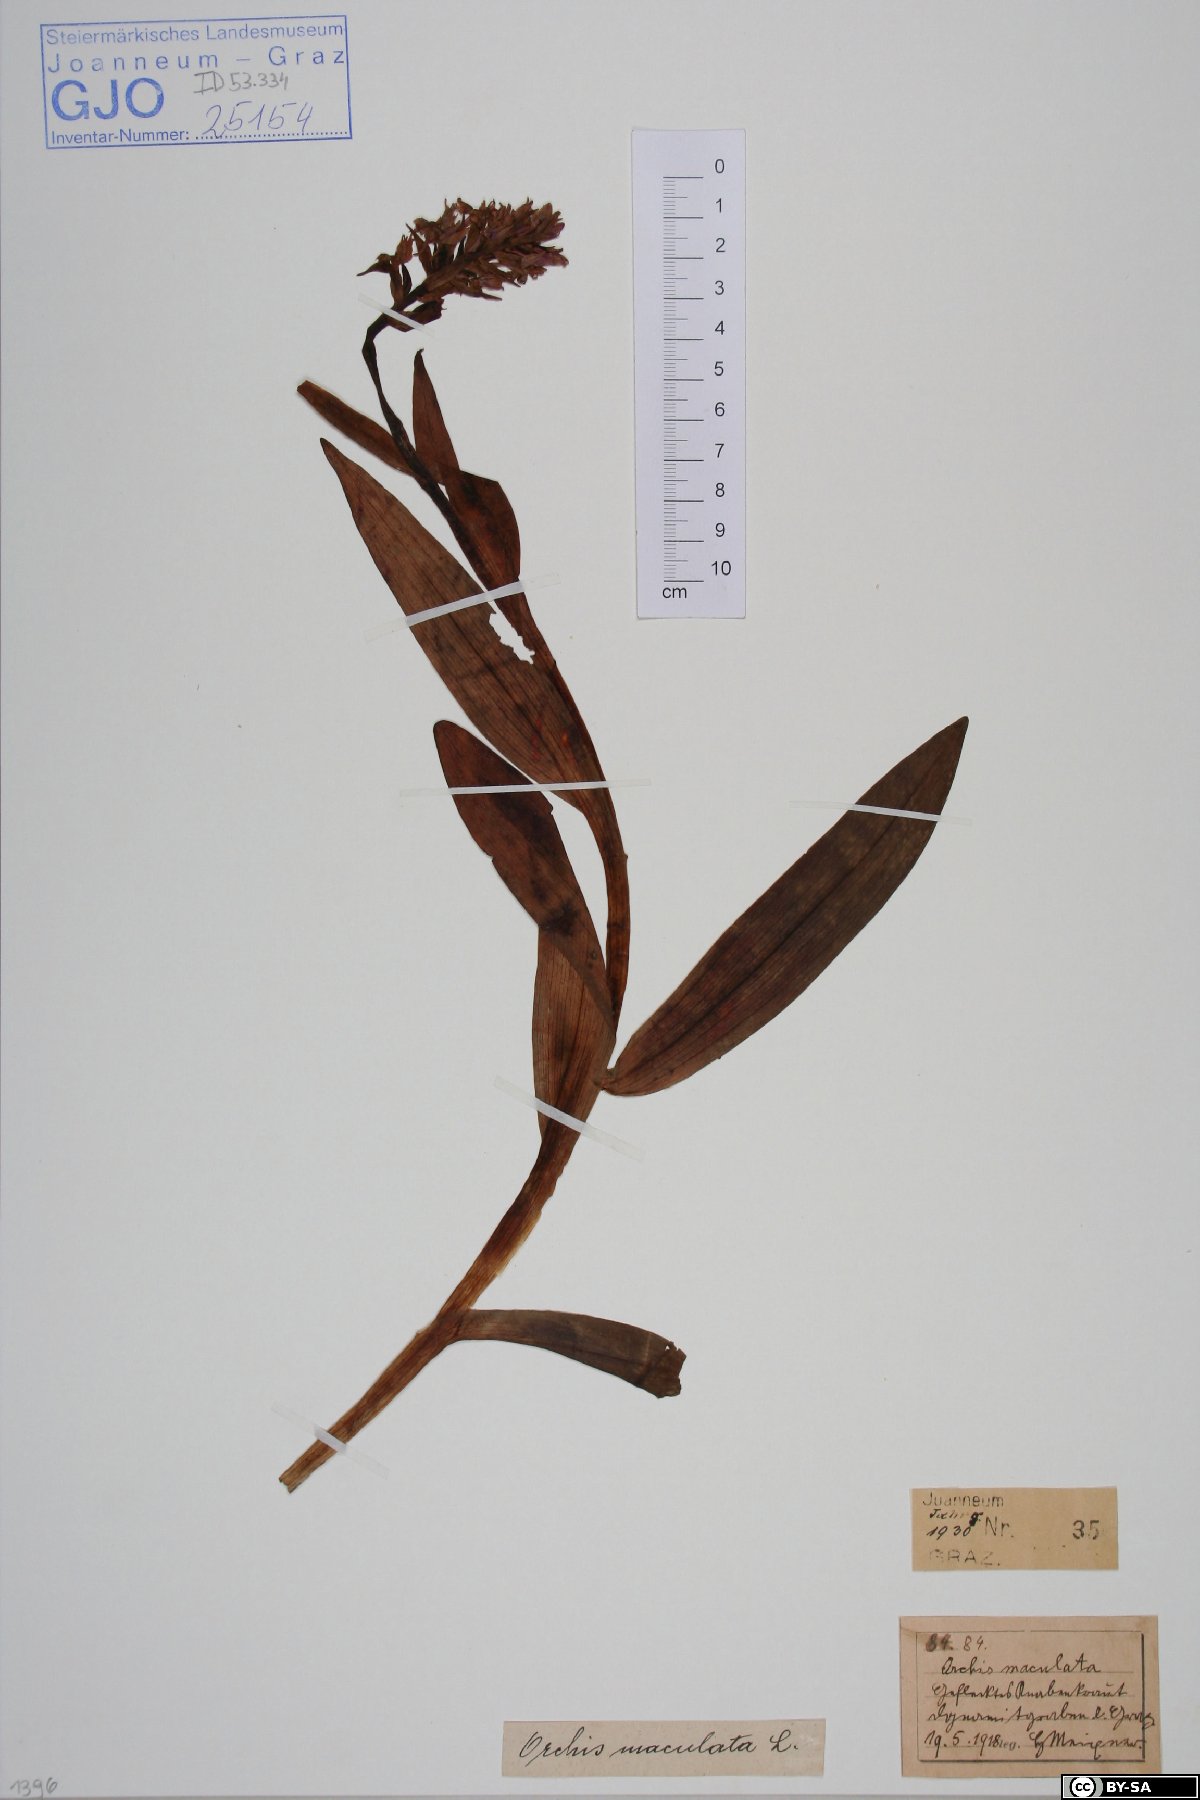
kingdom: Plantae
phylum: Tracheophyta
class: Liliopsida
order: Asparagales
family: Orchidaceae
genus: Dactylorhiza
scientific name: Dactylorhiza maculata
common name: Heath spotted-orchid
